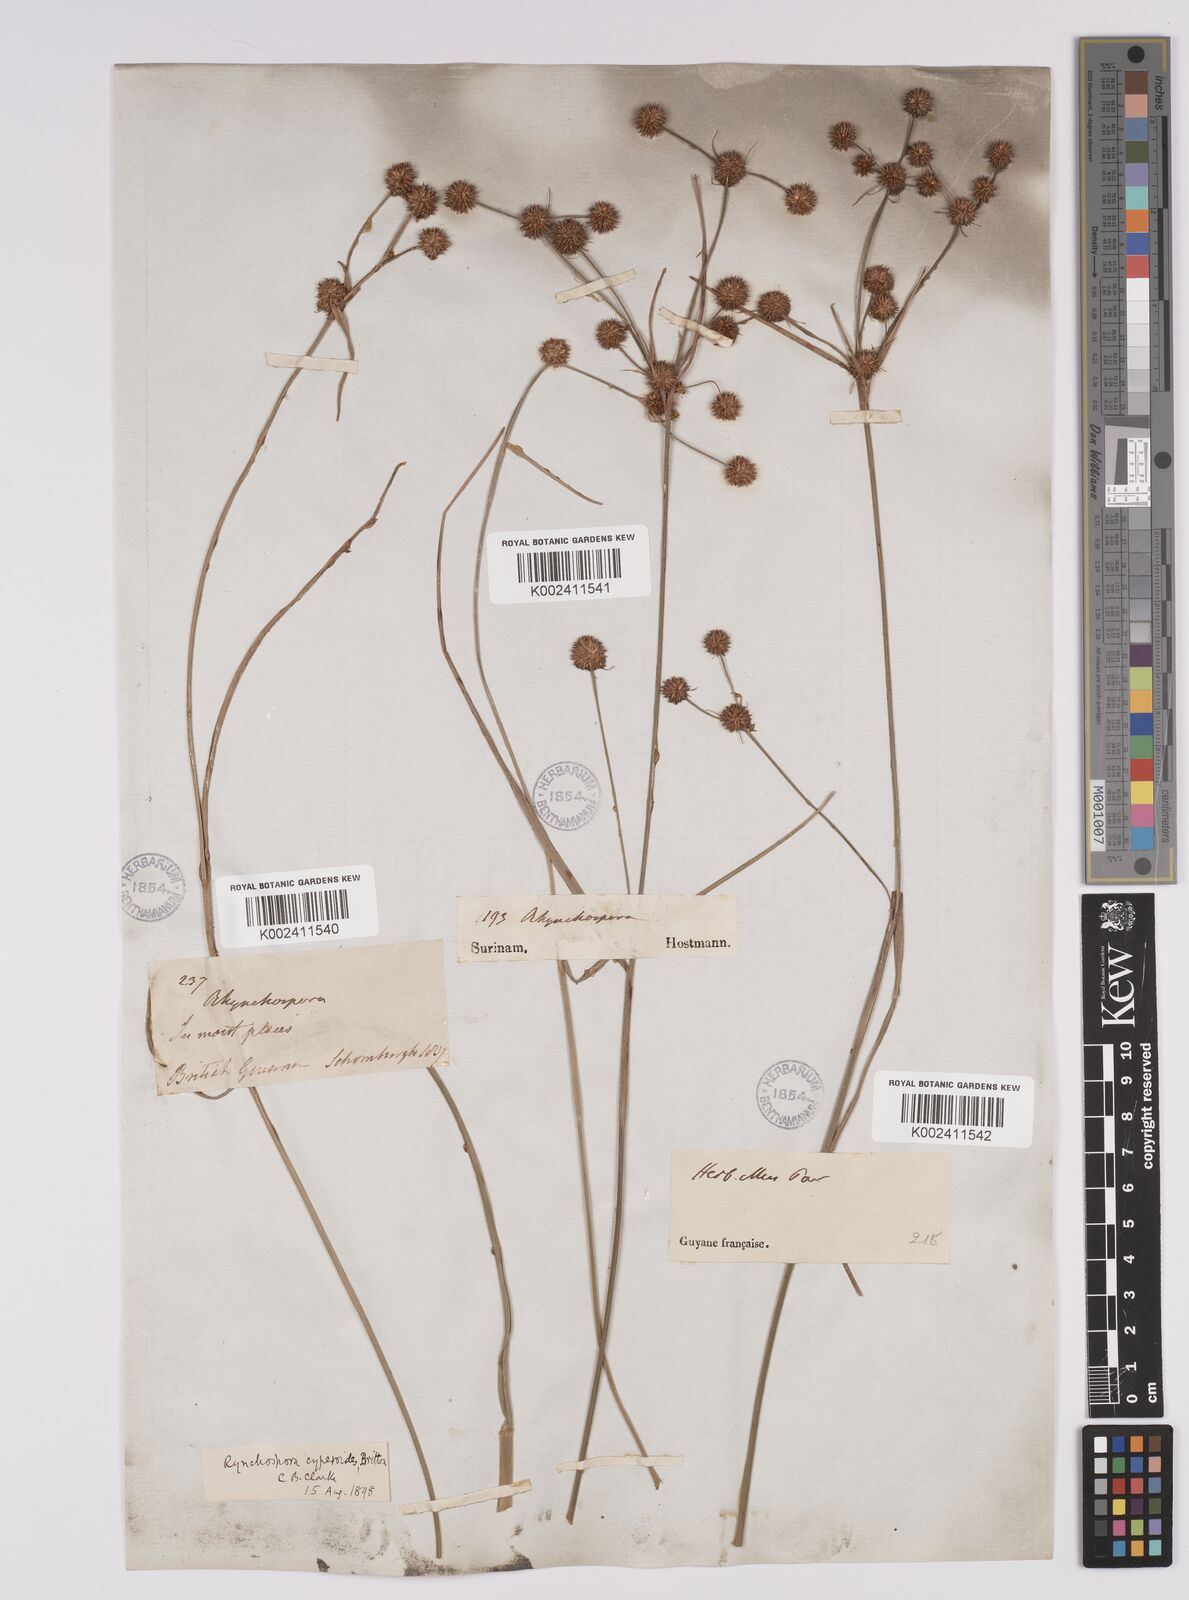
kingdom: Plantae
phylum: Tracheophyta
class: Liliopsida
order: Poales
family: Cyperaceae
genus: Rhynchospora
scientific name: Rhynchospora holoschoenoides
